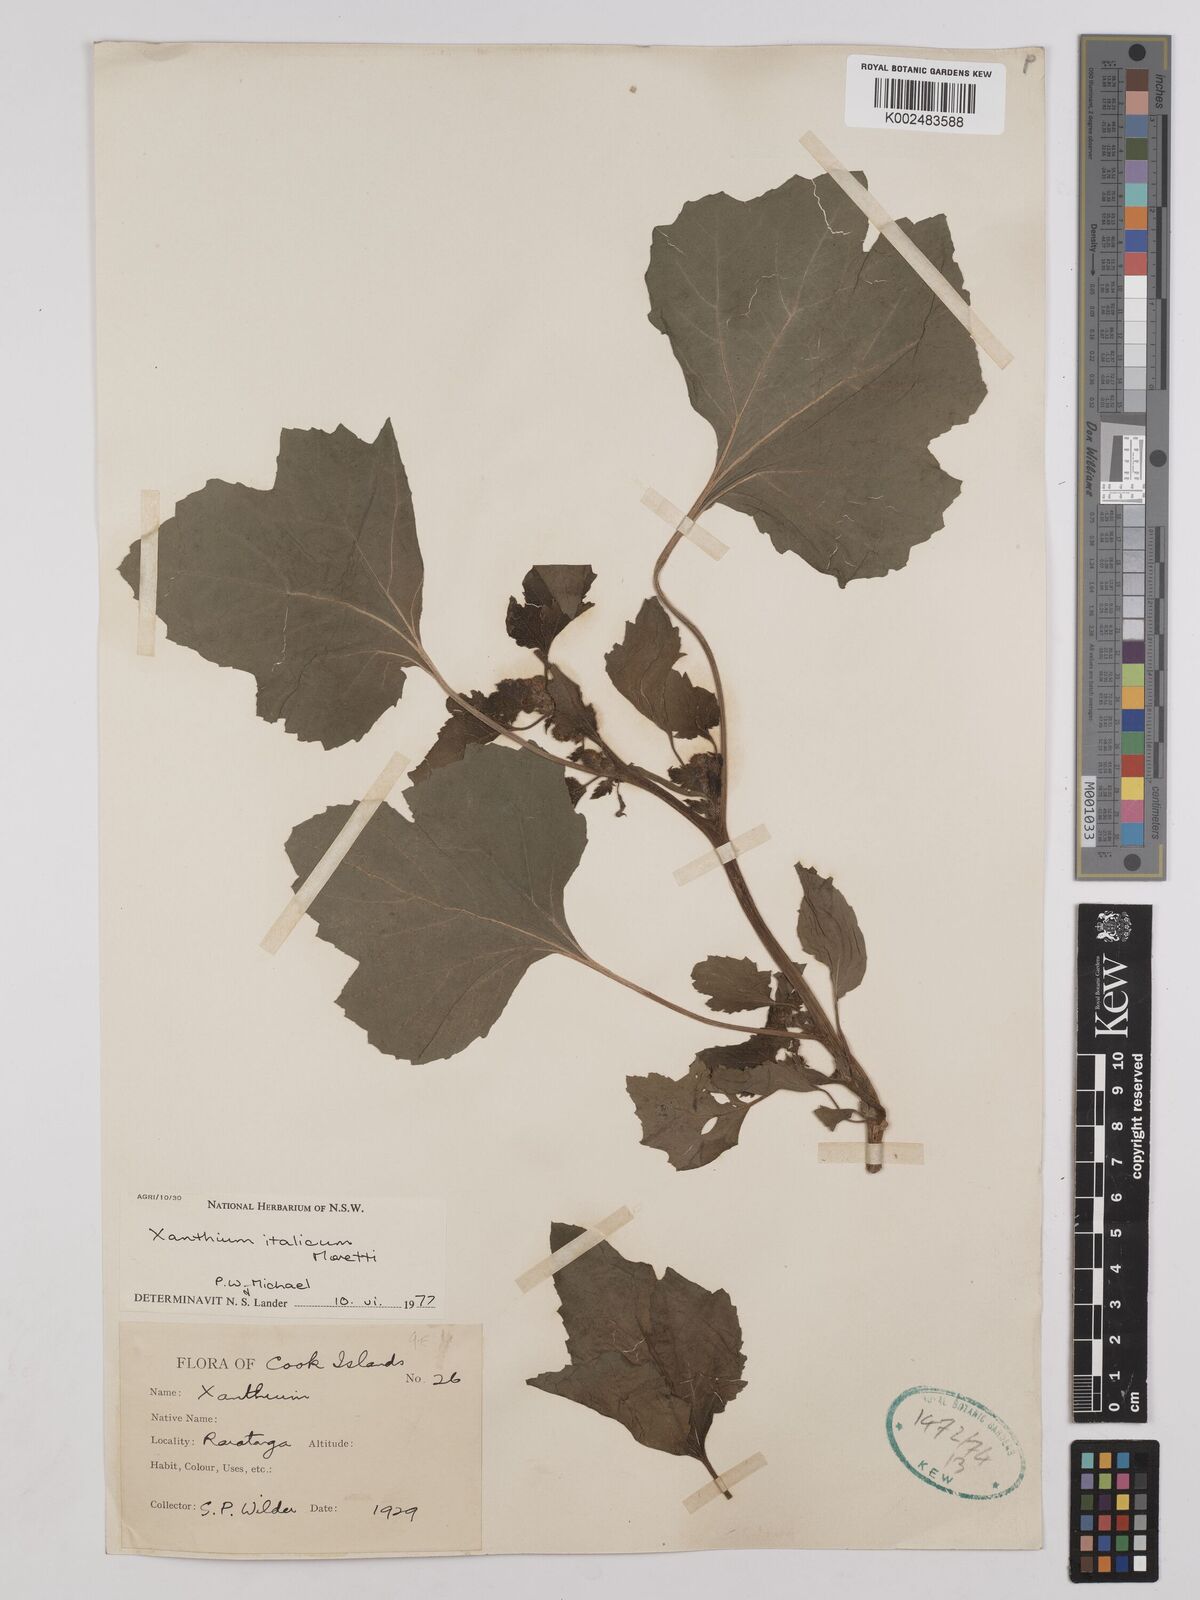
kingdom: Plantae
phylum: Tracheophyta
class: Magnoliopsida
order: Asterales
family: Asteraceae
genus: Xanthium
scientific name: Xanthium orientale
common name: Californian burr
